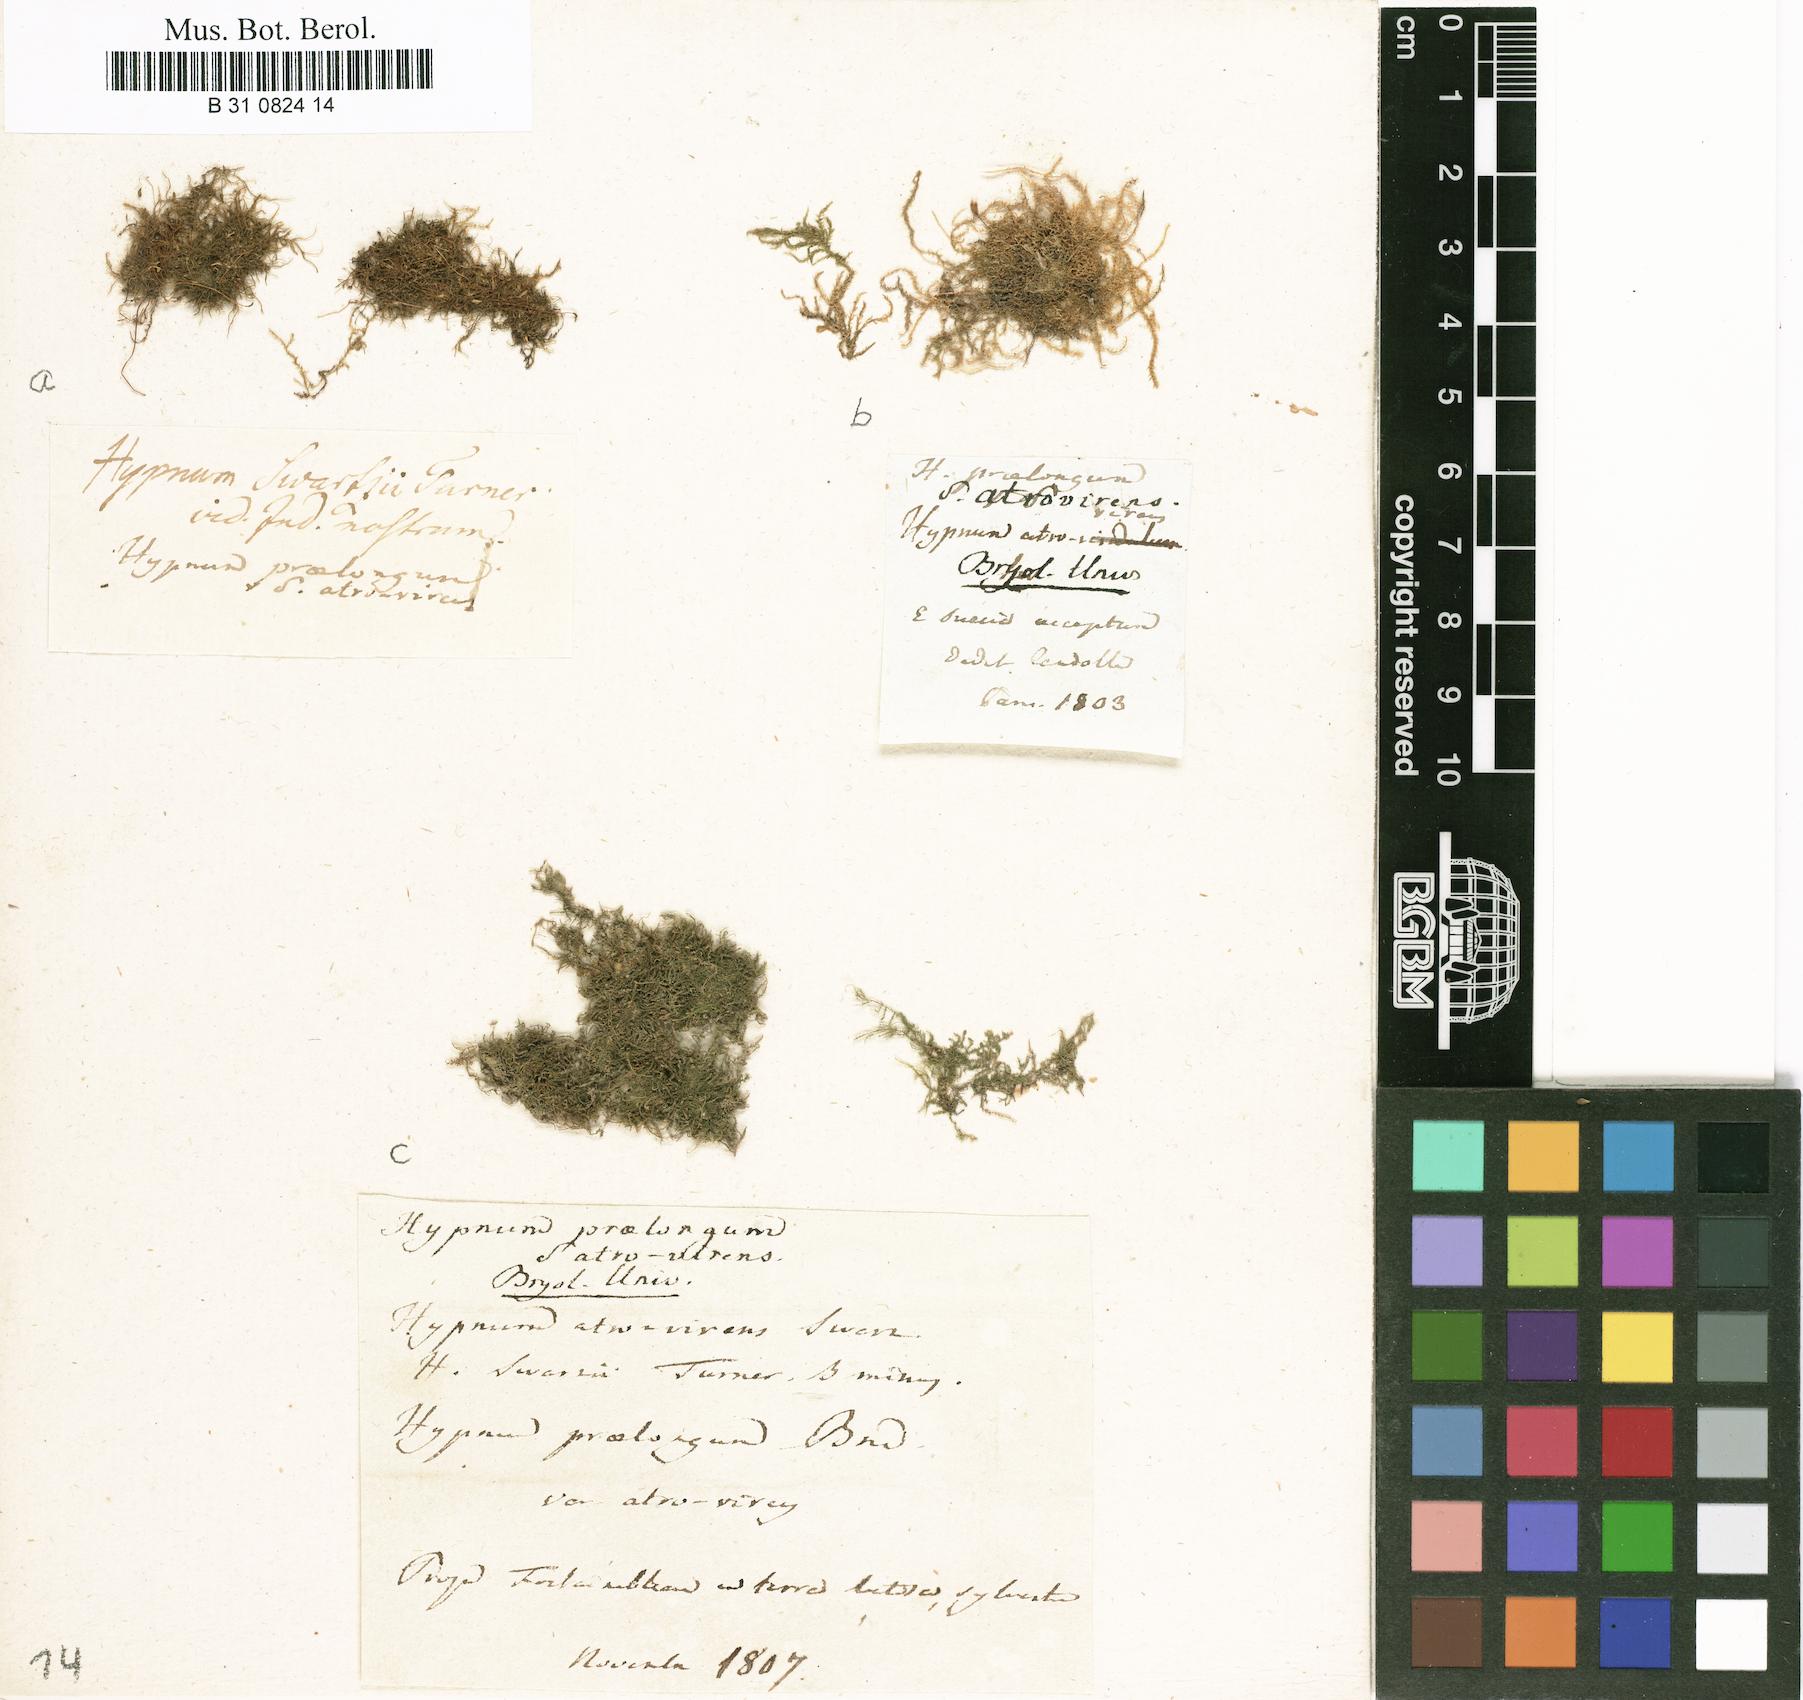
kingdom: Plantae
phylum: Bryophyta
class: Bryopsida
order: Hypnales
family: Brachytheciaceae
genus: Kindbergia
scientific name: Kindbergia praelonga
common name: Slender beaked moss
